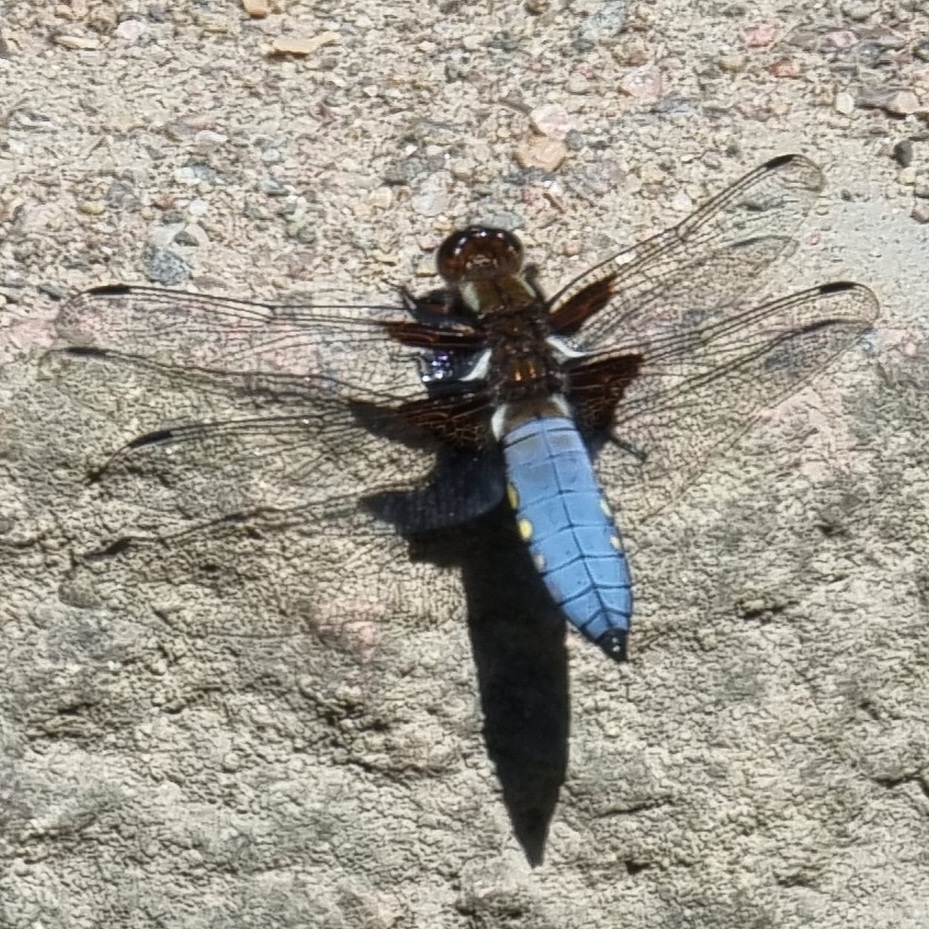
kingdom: Animalia
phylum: Arthropoda
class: Insecta
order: Odonata
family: Libellulidae
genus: Libellula
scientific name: Libellula depressa
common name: Blå libel
